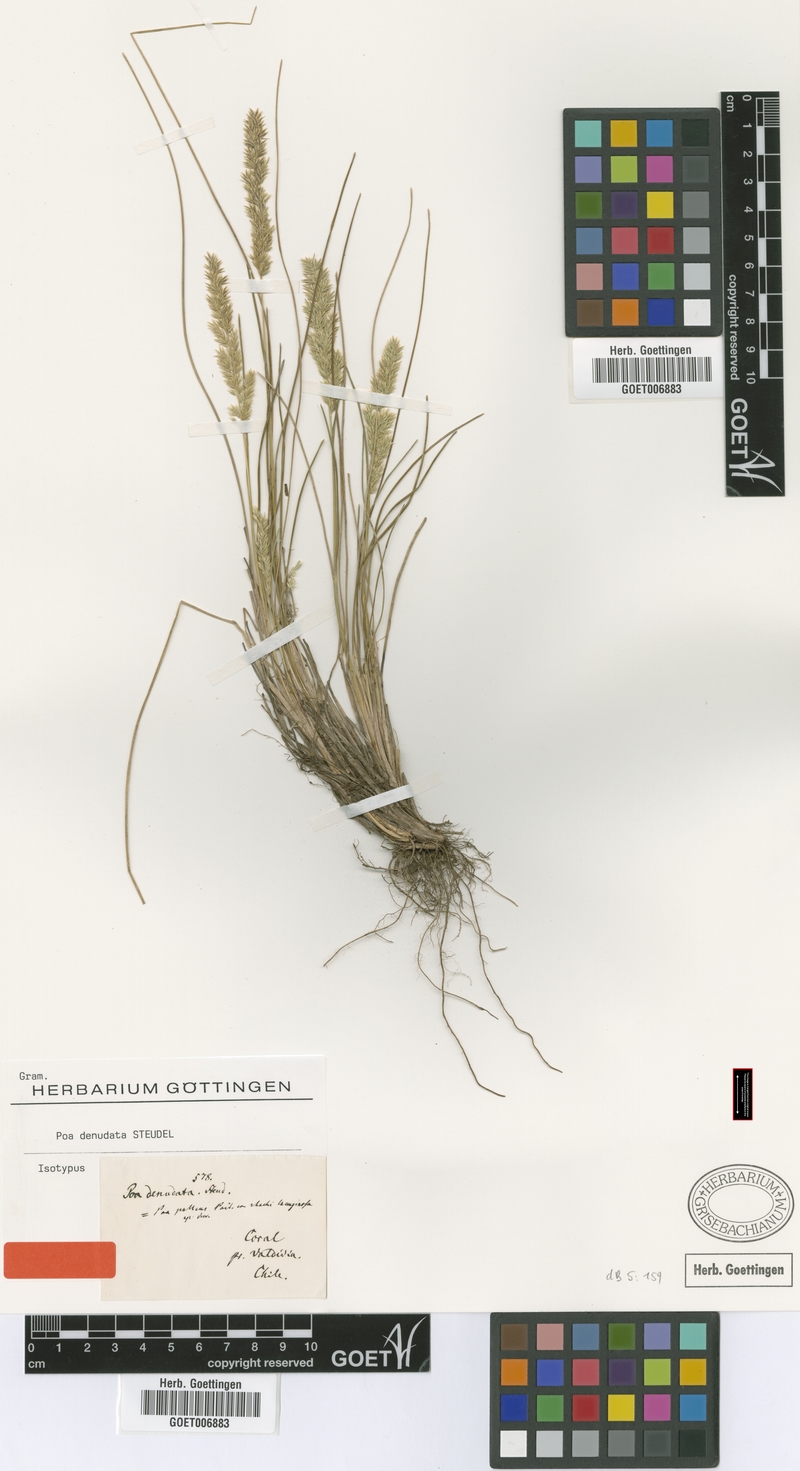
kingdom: Plantae
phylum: Tracheophyta
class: Liliopsida
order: Poales
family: Poaceae
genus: Poa
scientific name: Poa denudata
